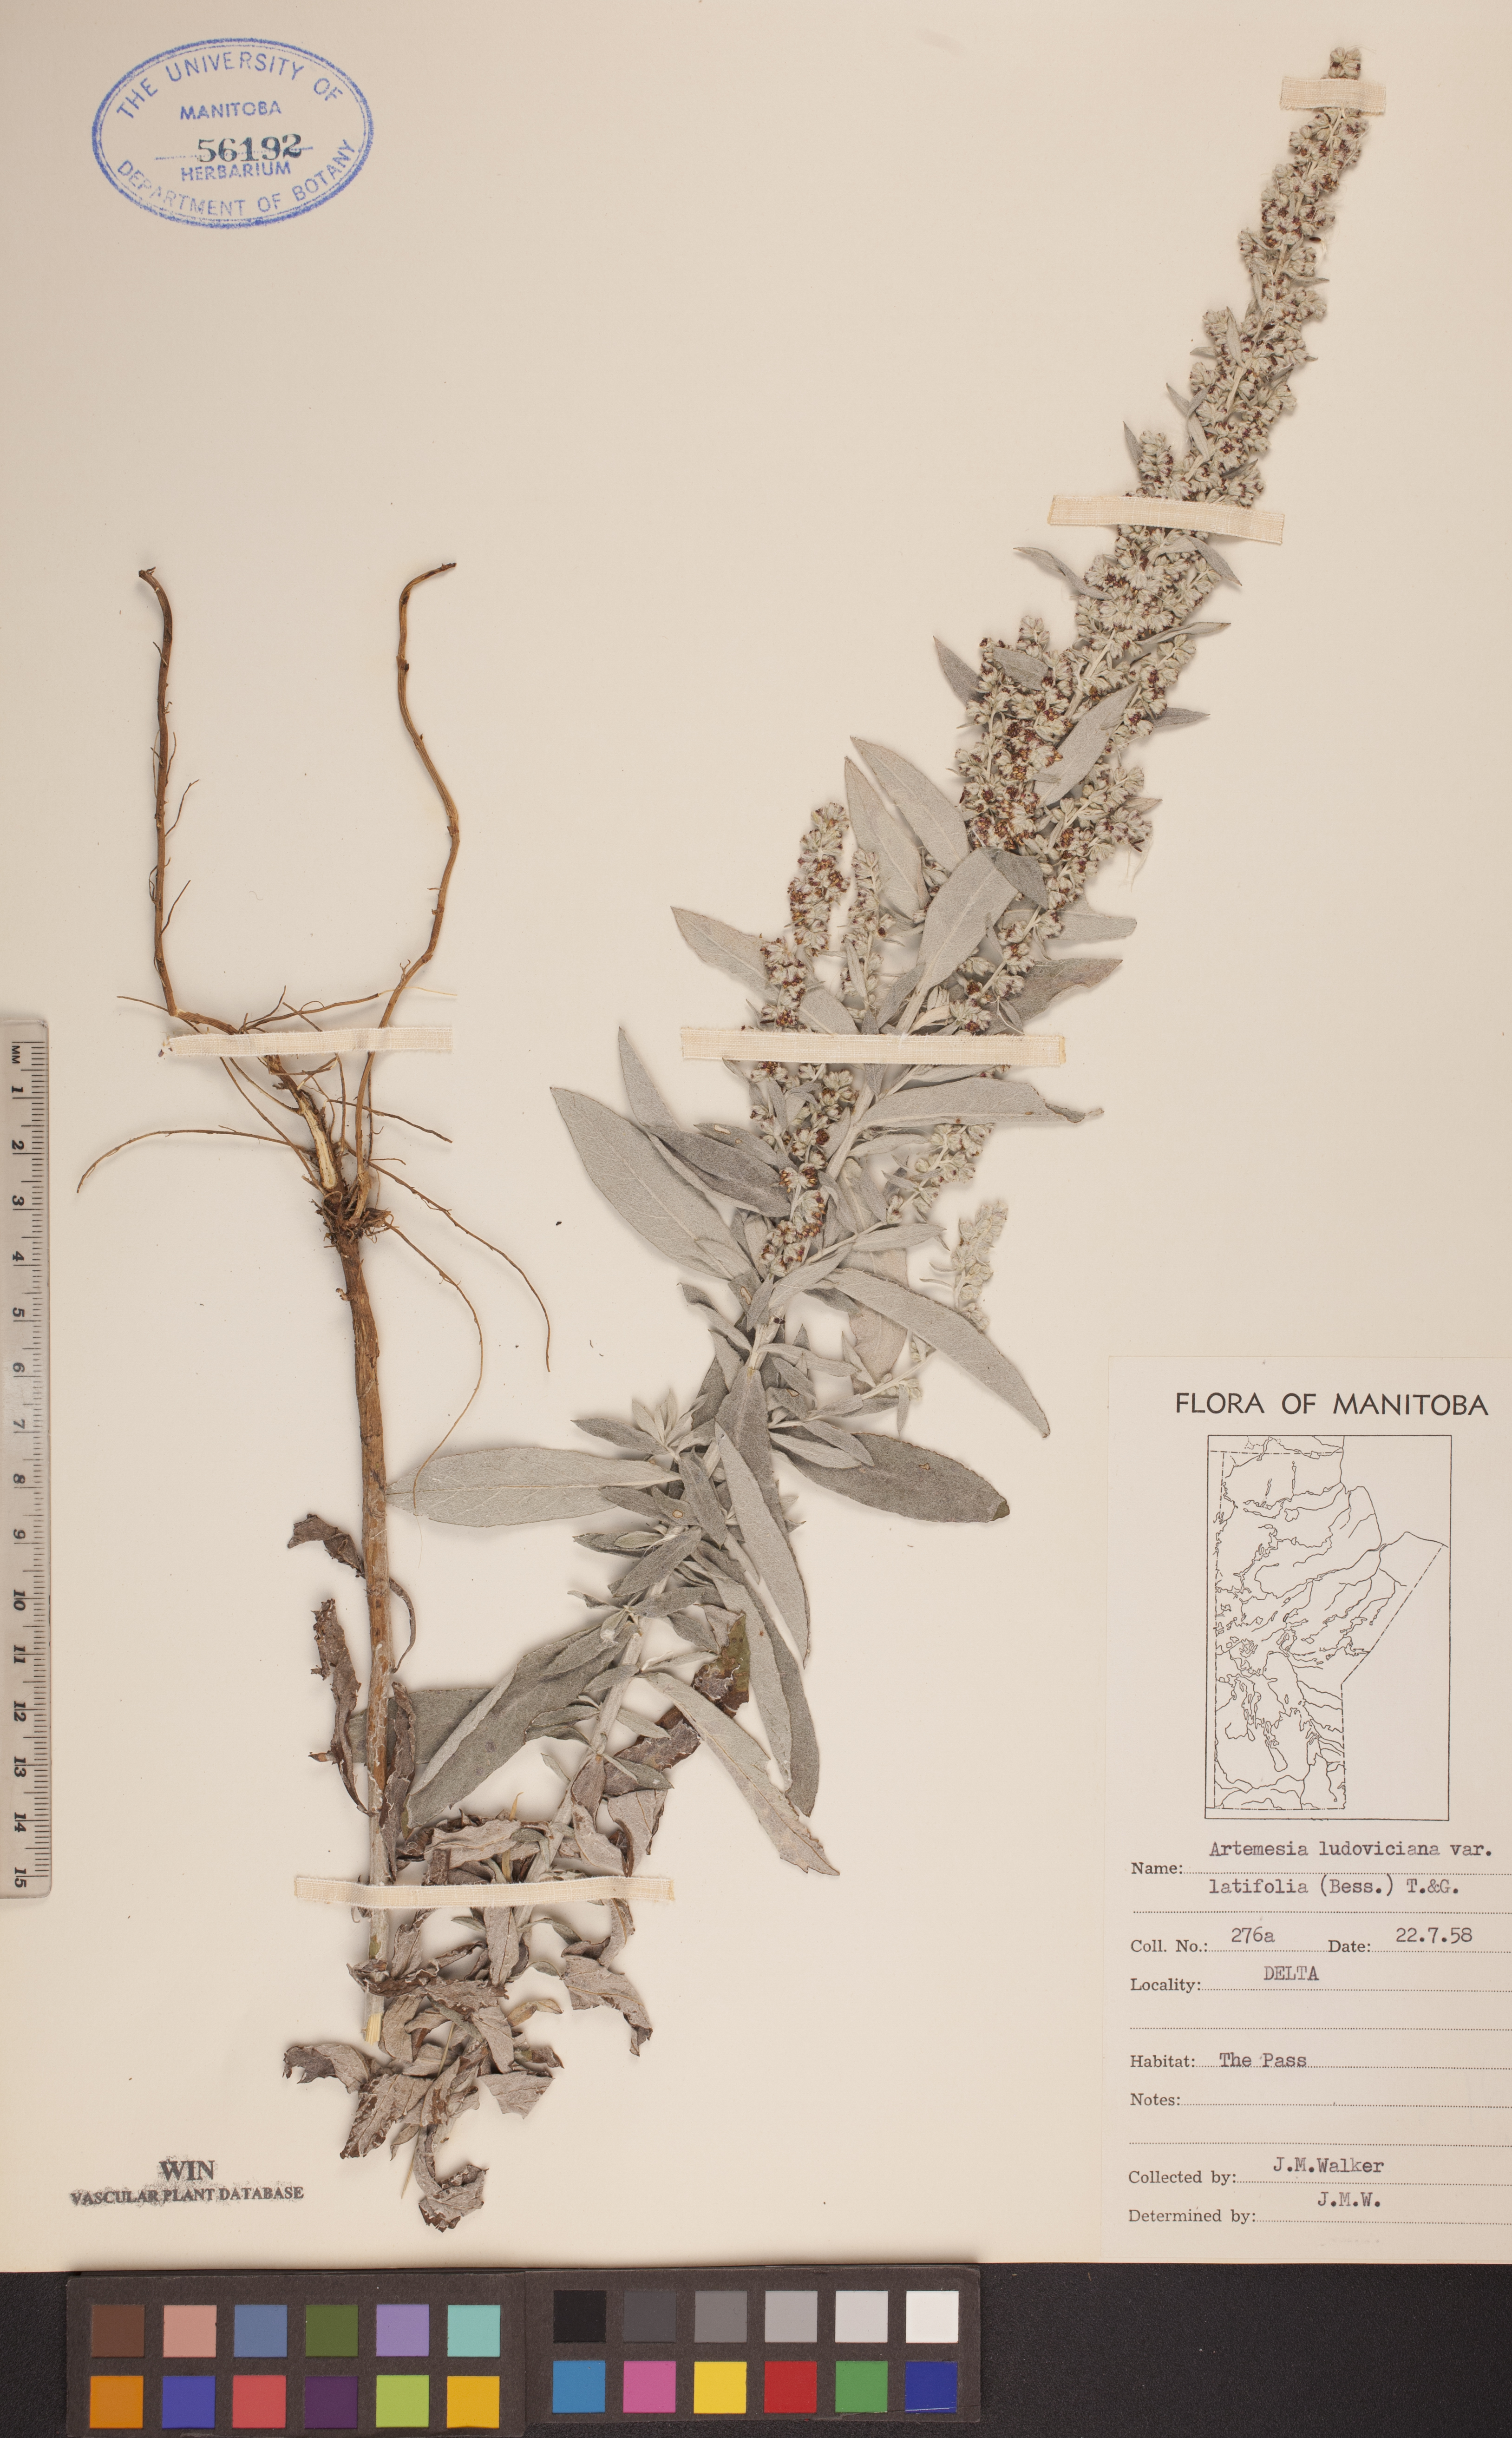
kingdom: Plantae
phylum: Tracheophyta
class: Magnoliopsida
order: Asterales
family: Asteraceae
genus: Artemisia
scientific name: Artemisia ludoviciana
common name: Western mugwort
